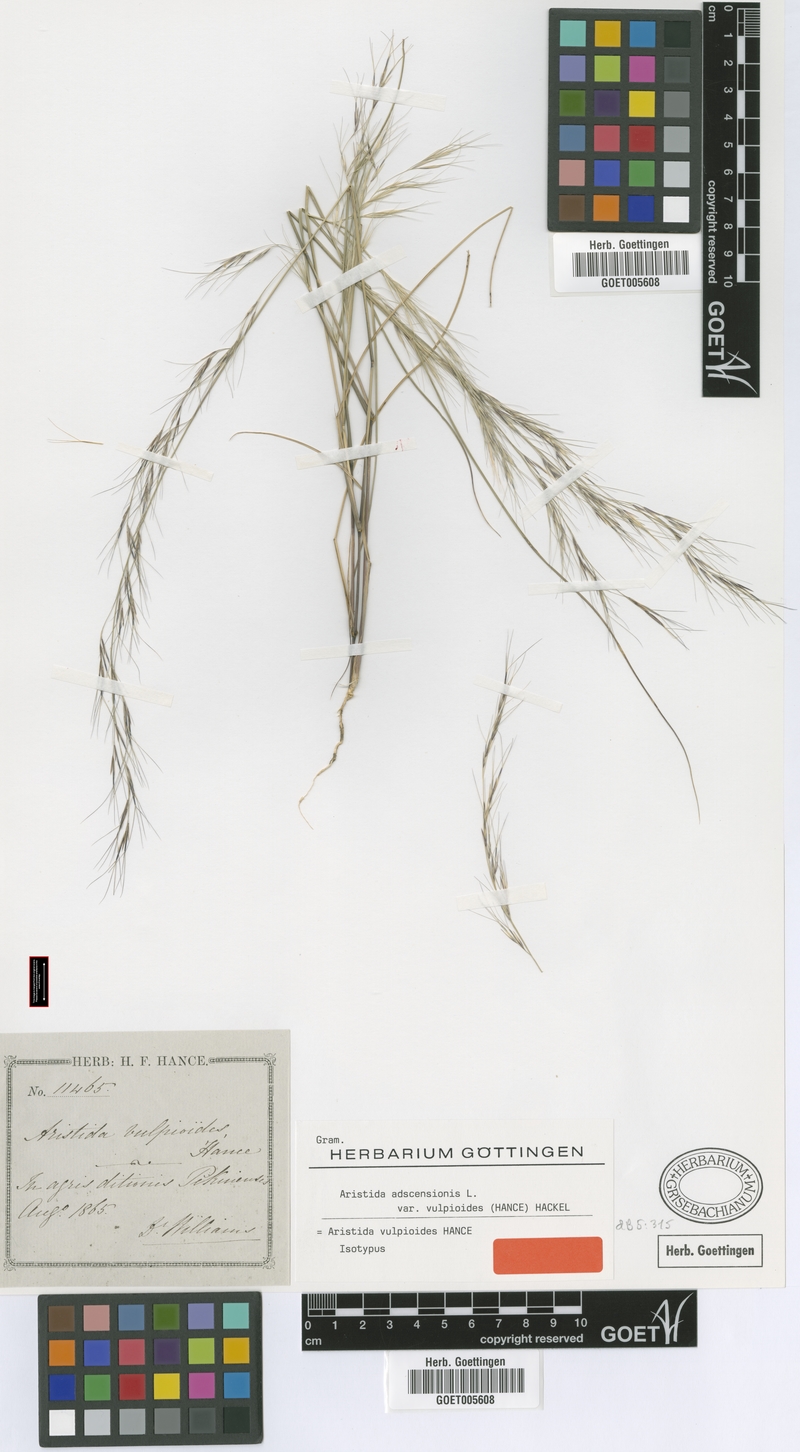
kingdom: Plantae
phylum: Tracheophyta
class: Liliopsida
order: Poales
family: Poaceae
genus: Aristida
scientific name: Aristida adscensionis
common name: Sixweeks threeawn
